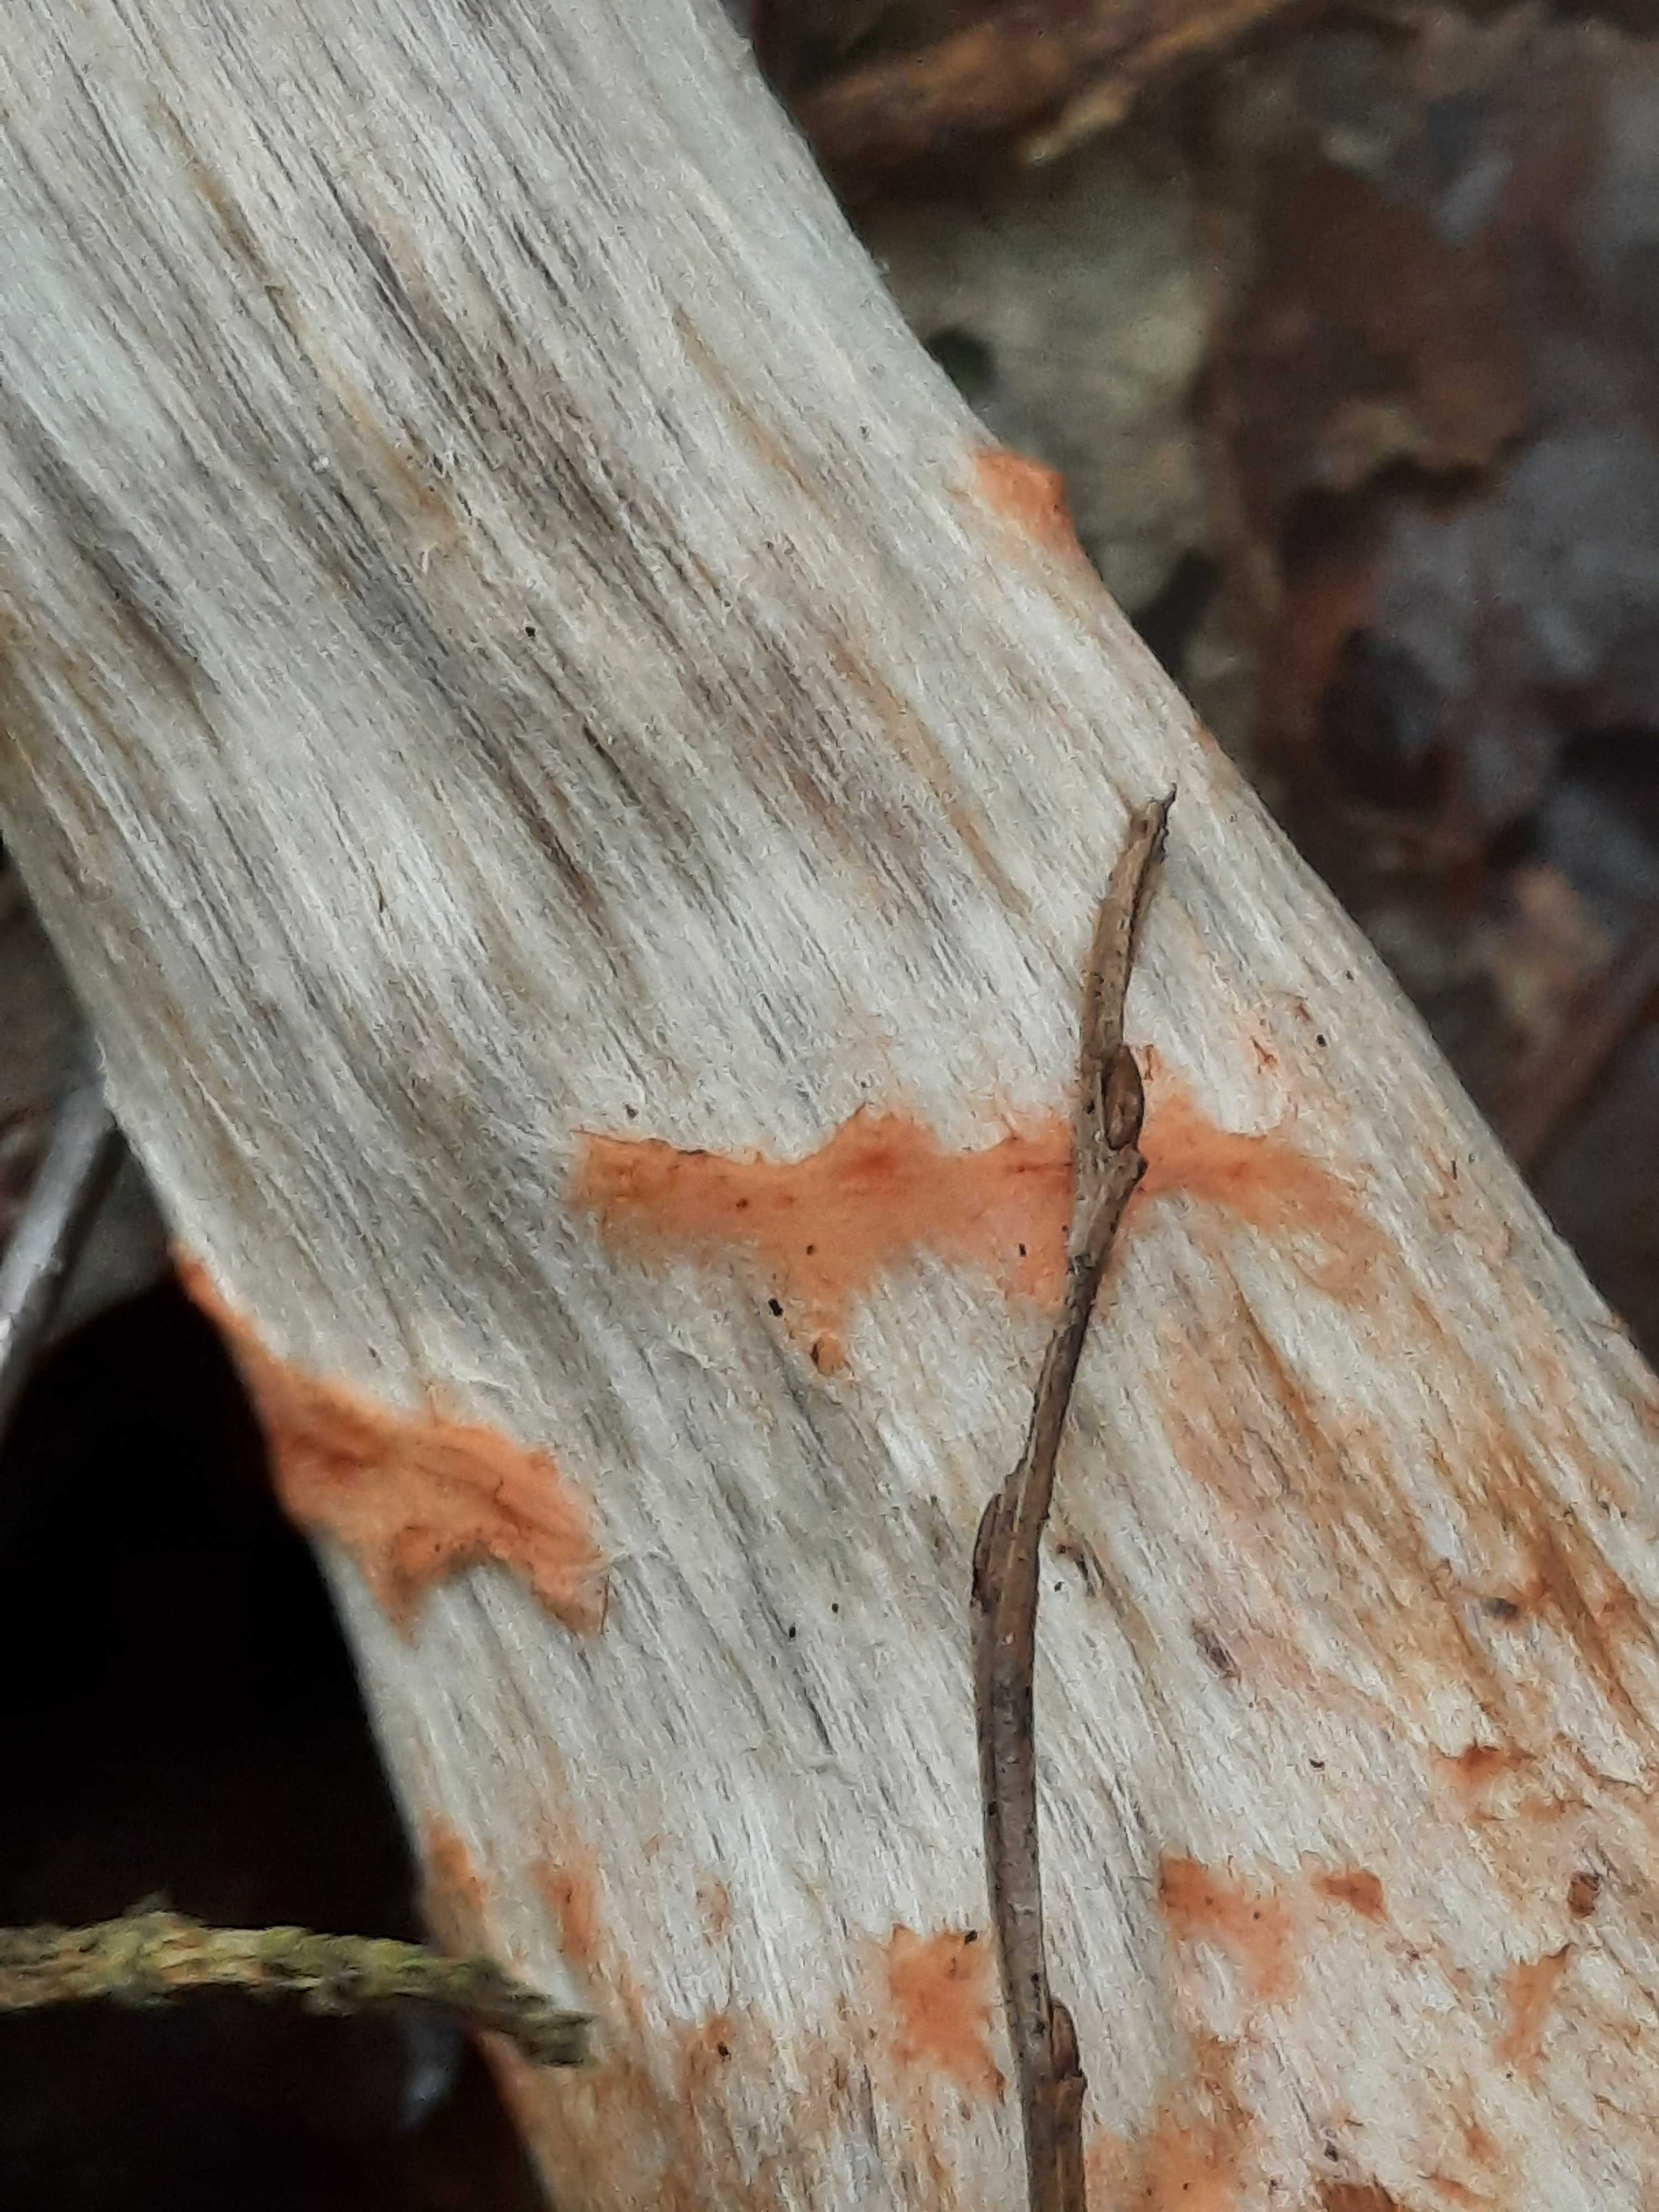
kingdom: Fungi
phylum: Basidiomycota
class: Agaricomycetes
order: Agaricales
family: Cortinariaceae
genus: Cortinarius
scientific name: Cortinarius armillatus
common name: cinnoberbæltet slørhat
